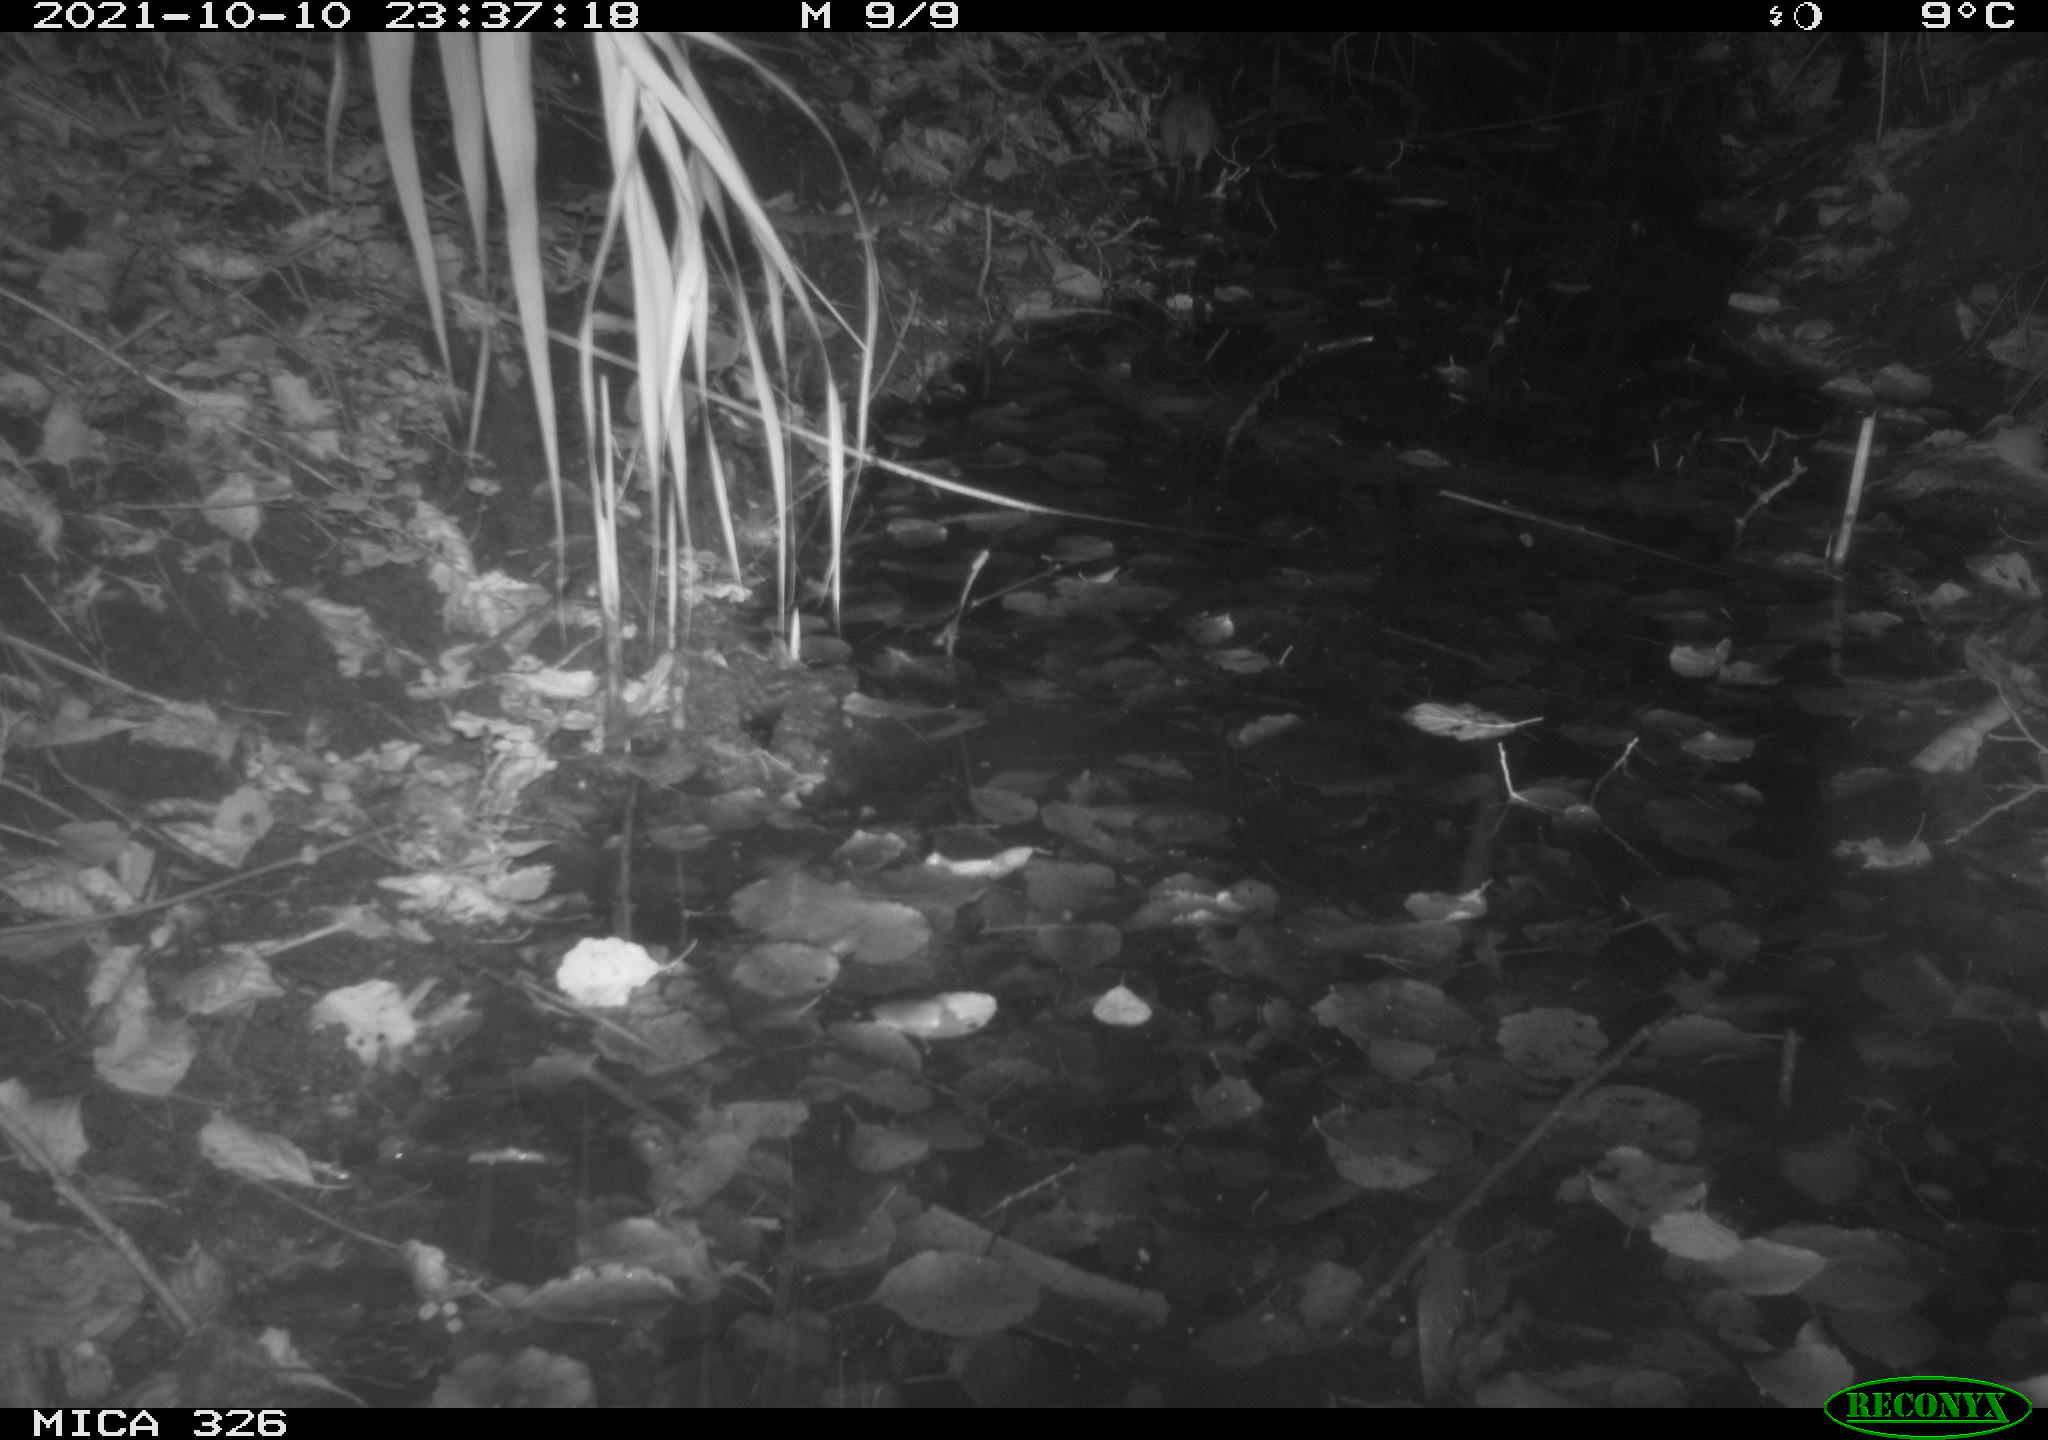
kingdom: Animalia
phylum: Chordata
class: Mammalia
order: Rodentia
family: Muridae
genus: Rattus
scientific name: Rattus norvegicus
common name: Brown rat
